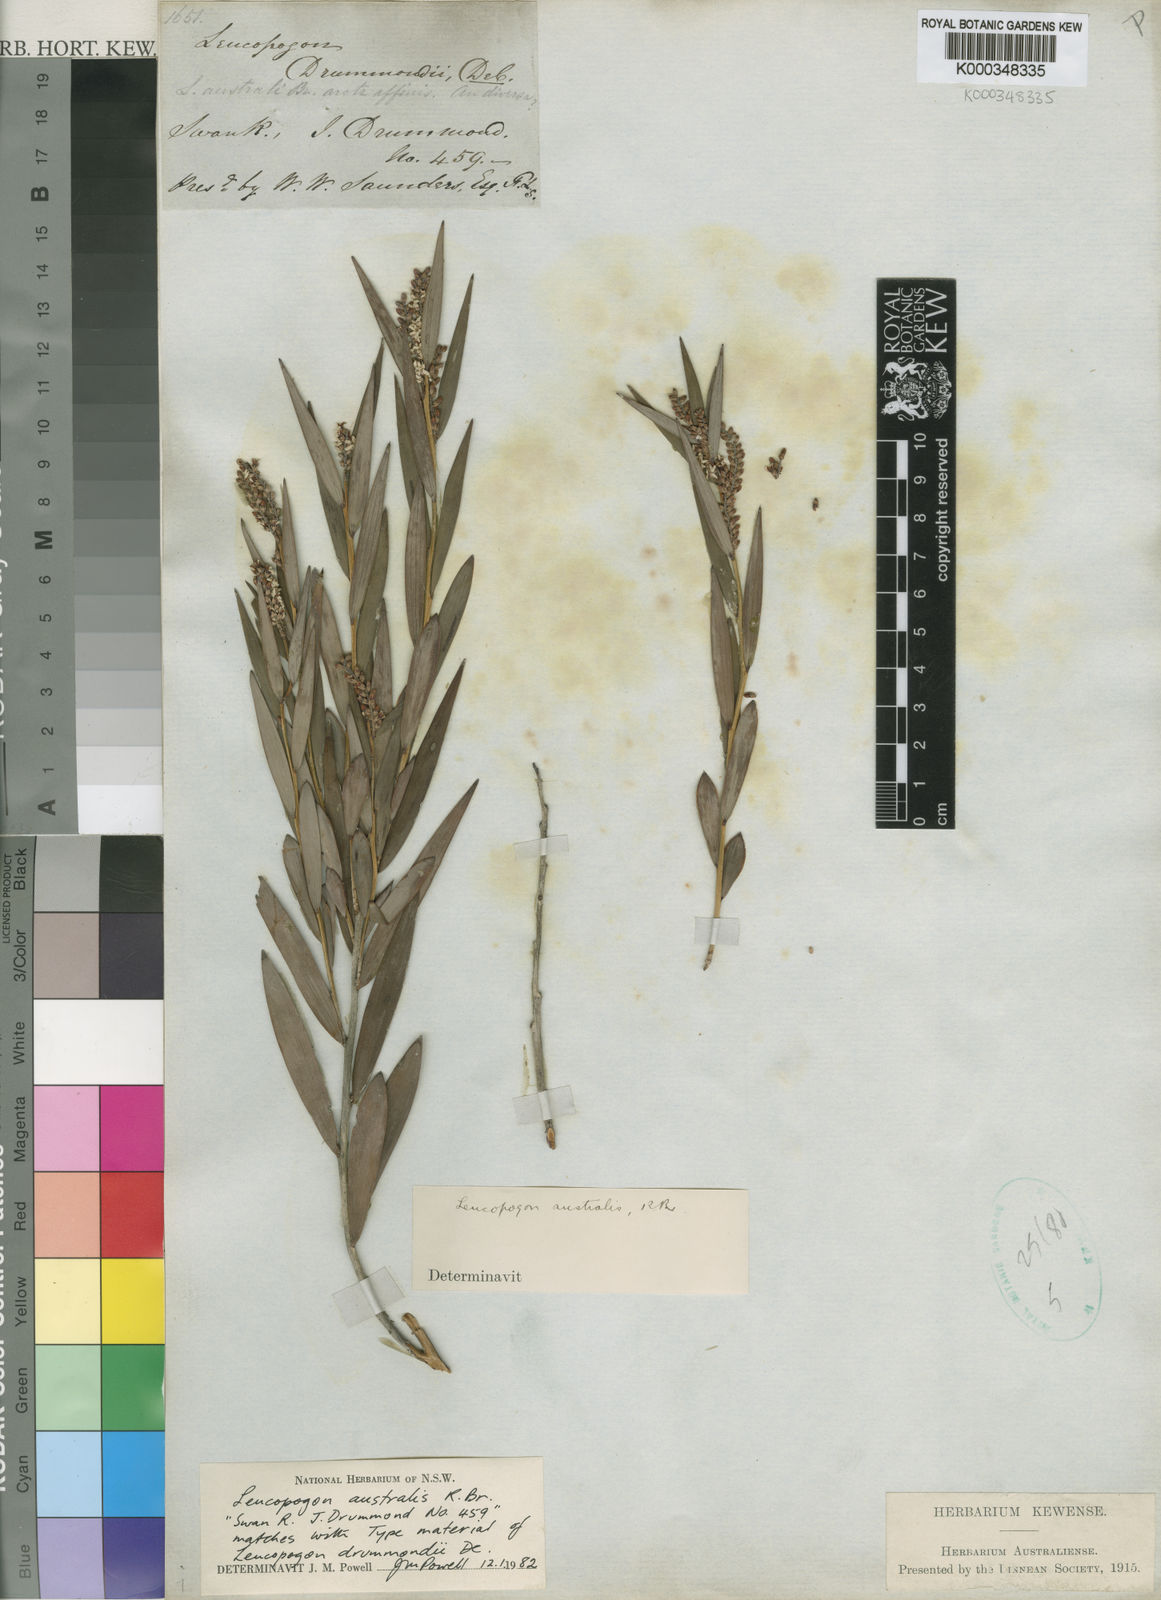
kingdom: Plantae
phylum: Tracheophyta
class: Magnoliopsida
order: Ericales
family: Ericaceae
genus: Leucopogon
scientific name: Leucopogon australis
